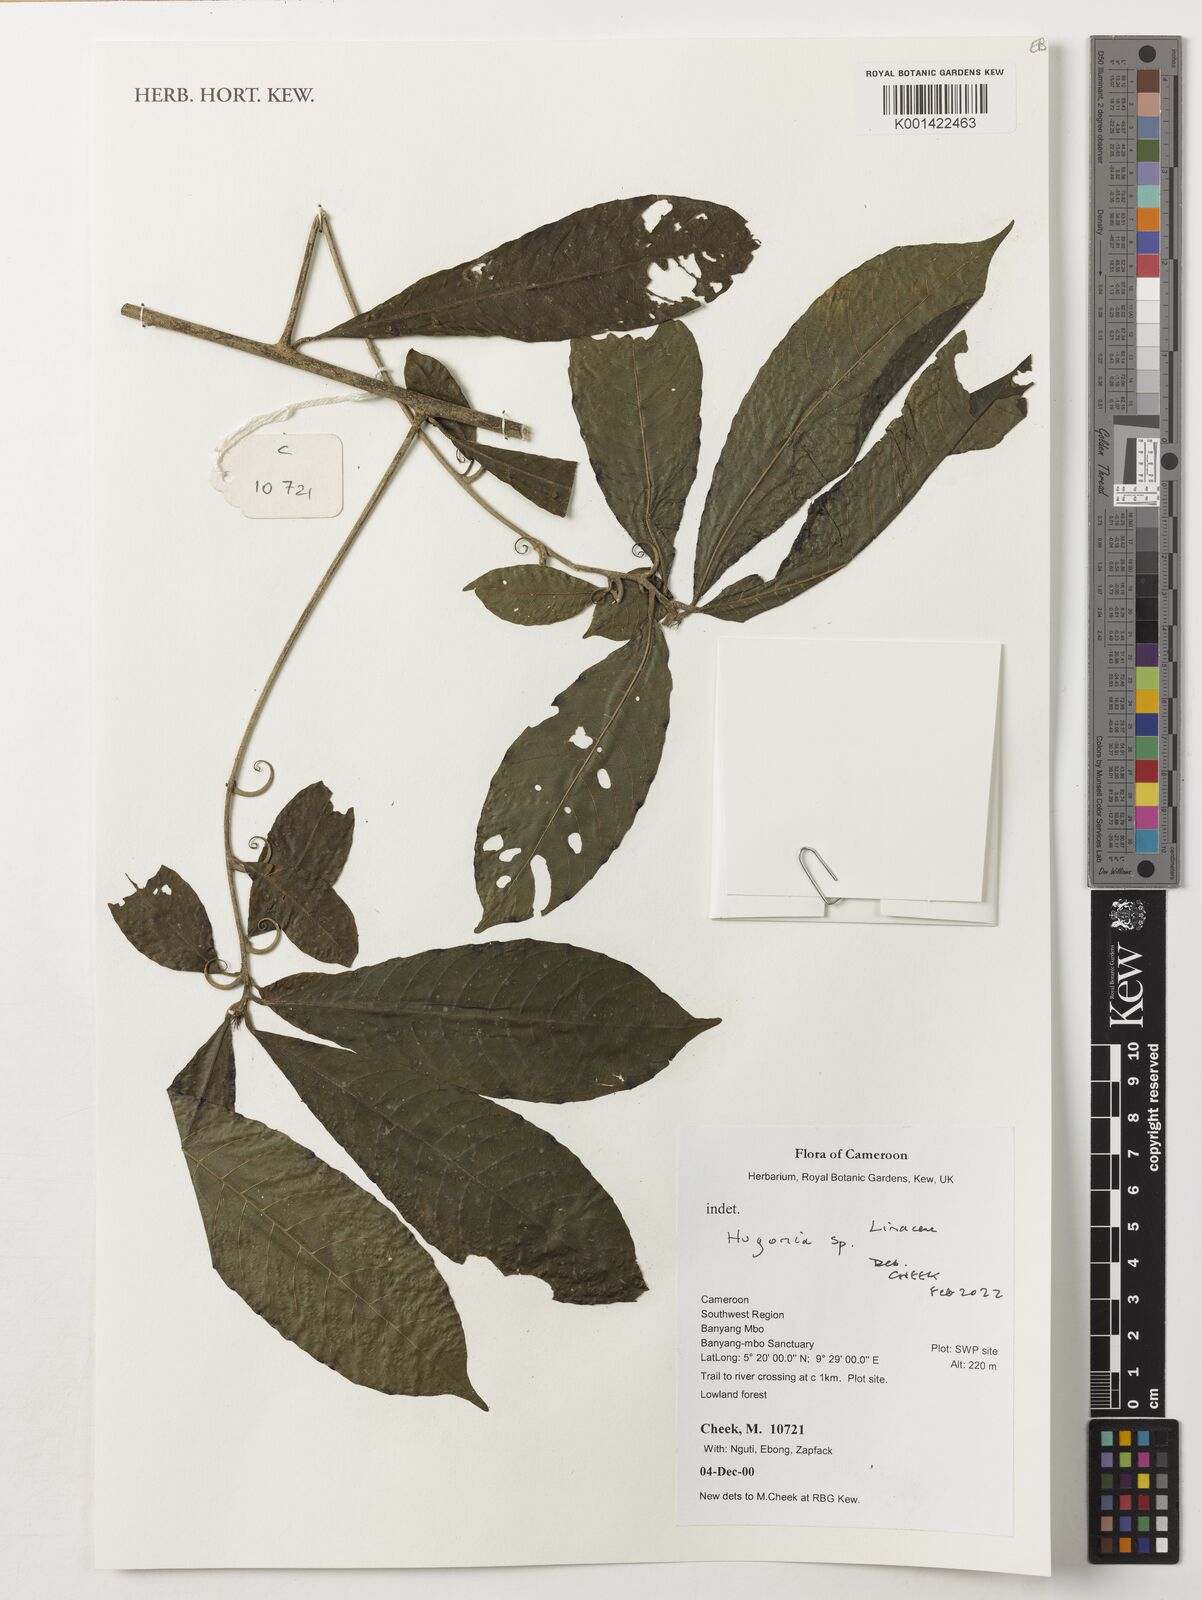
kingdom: Plantae
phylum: Tracheophyta
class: Magnoliopsida
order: Malpighiales
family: Linaceae
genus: Hugonia
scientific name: Hugonia
